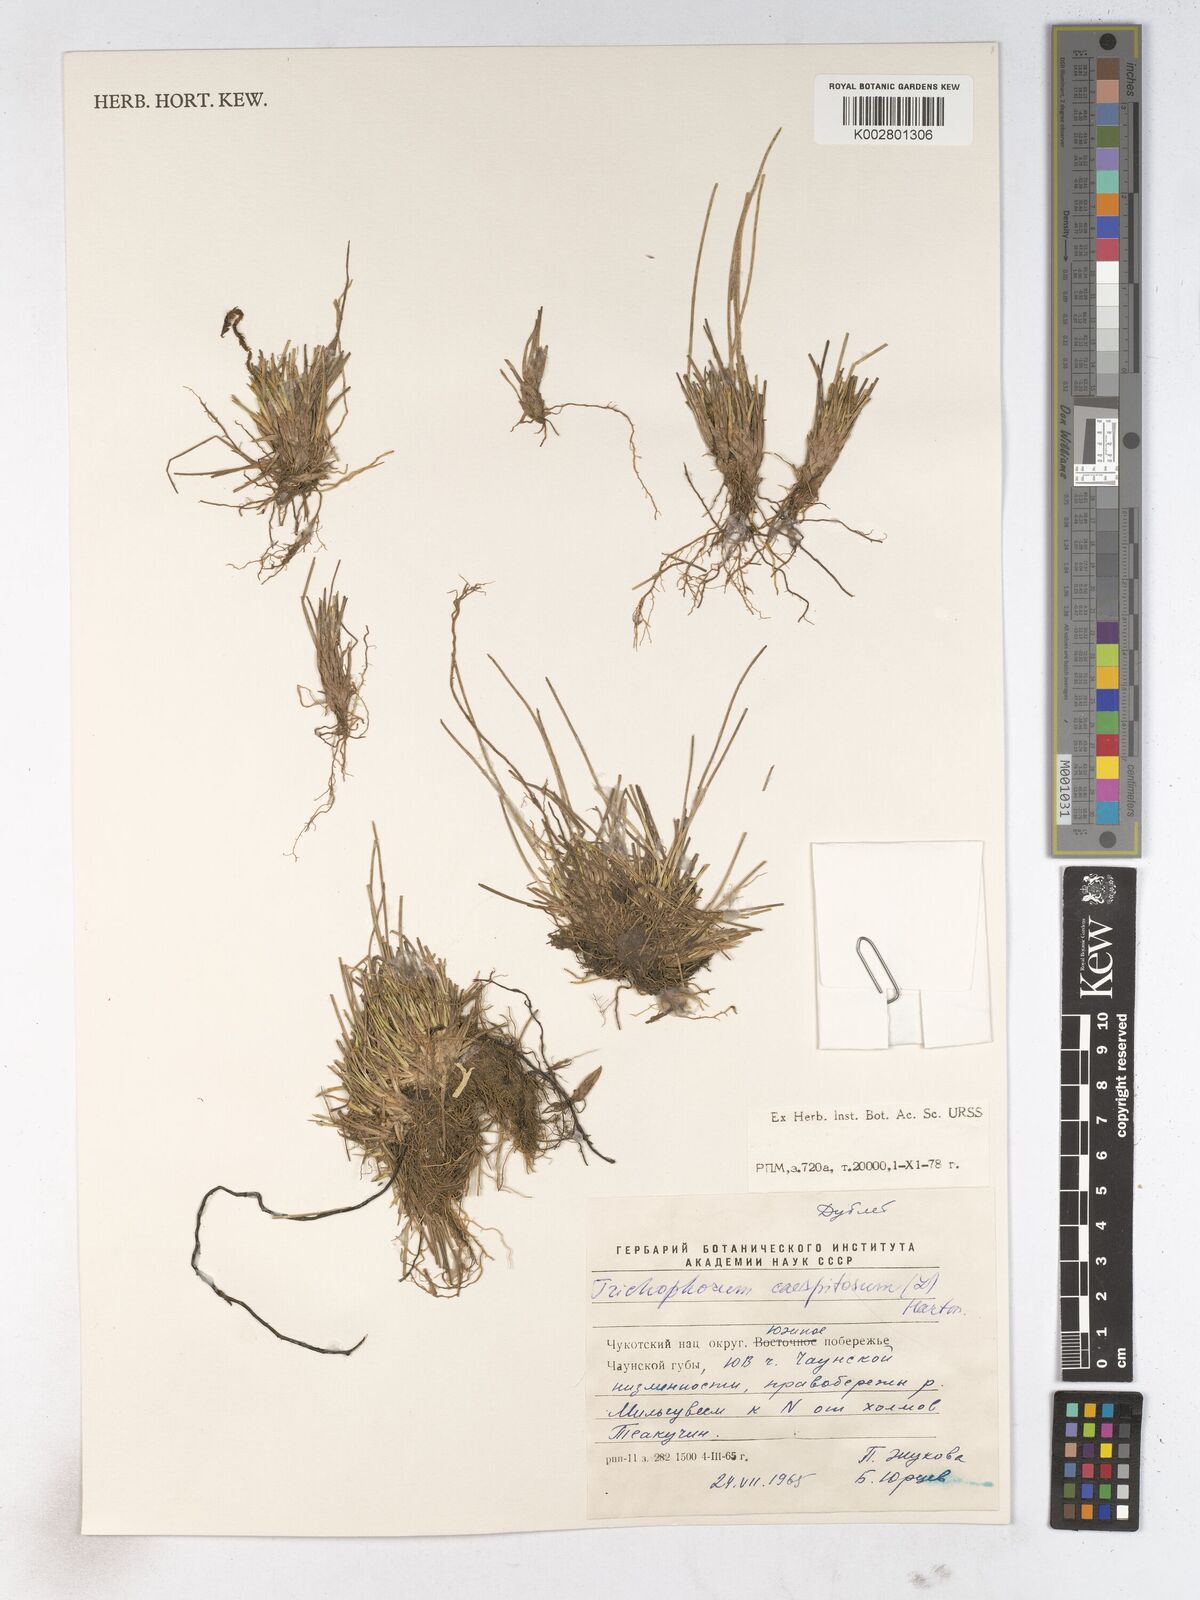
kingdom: Plantae
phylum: Tracheophyta
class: Liliopsida
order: Poales
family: Cyperaceae
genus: Trichophorum
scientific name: Trichophorum cespitosum
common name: Cespitose bulrush
